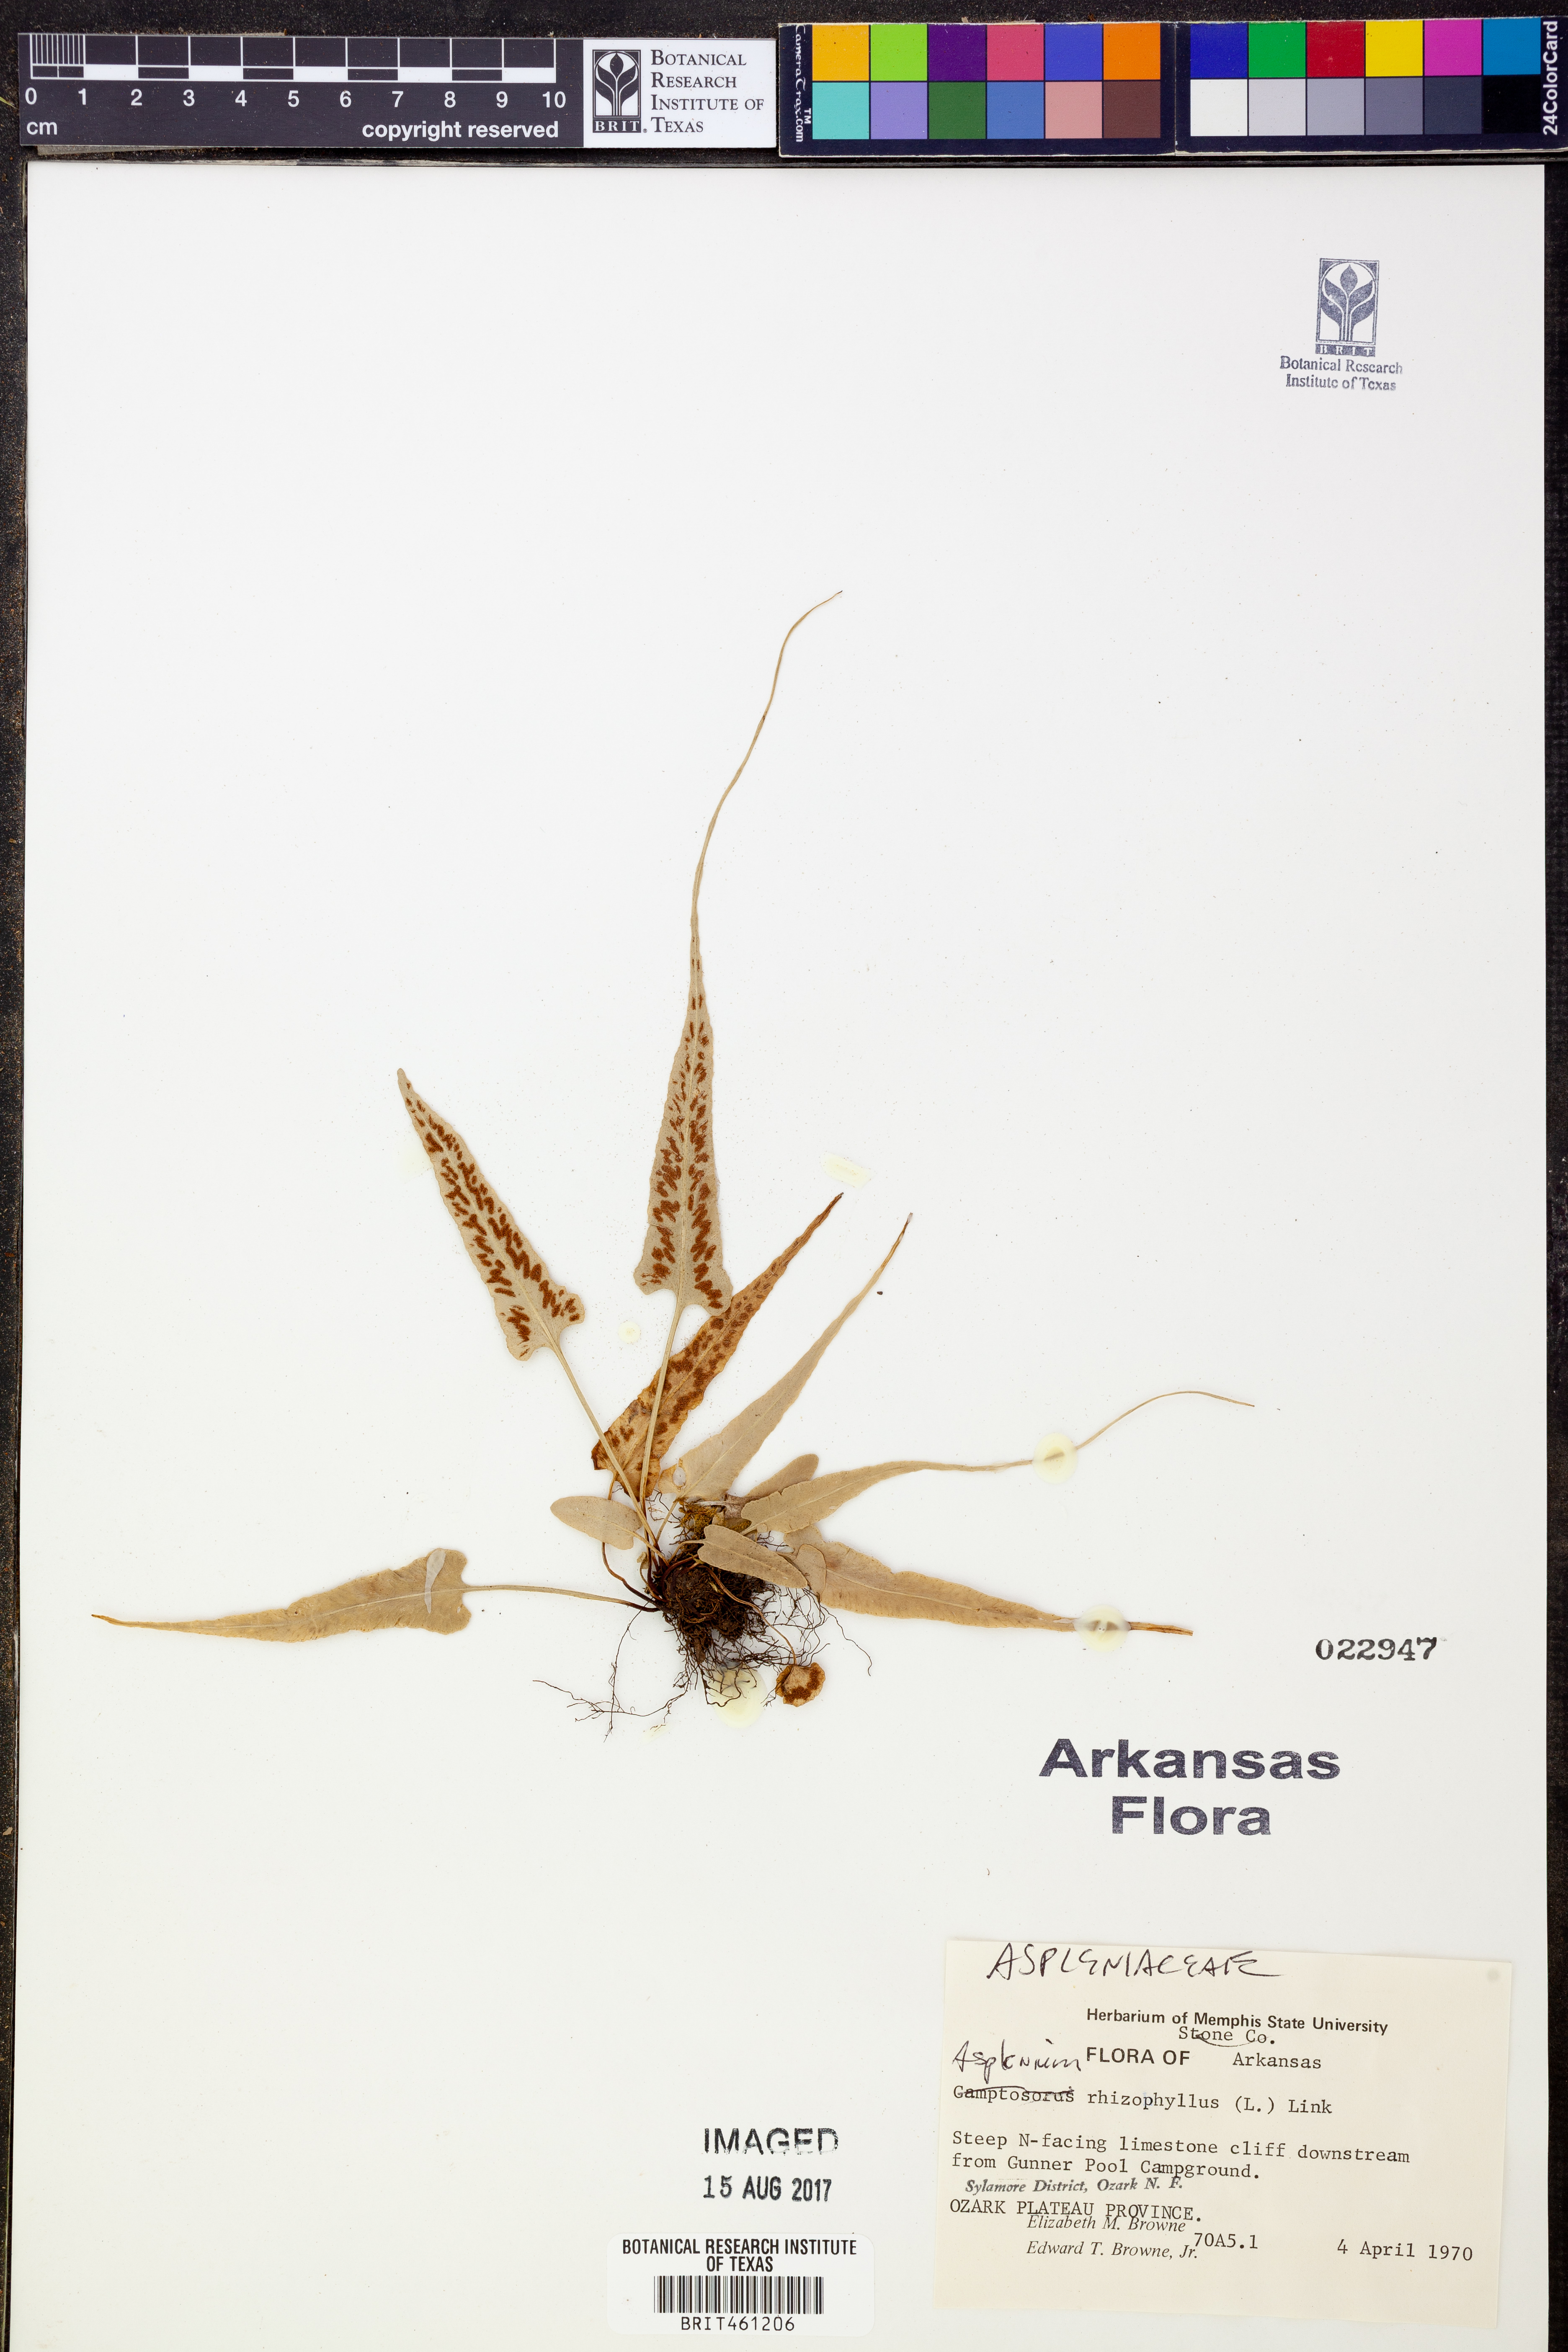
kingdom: Plantae
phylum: Tracheophyta
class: Polypodiopsida
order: Polypodiales
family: Aspleniaceae
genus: Asplenium
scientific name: Asplenium rhizophyllum
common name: Walking fern
